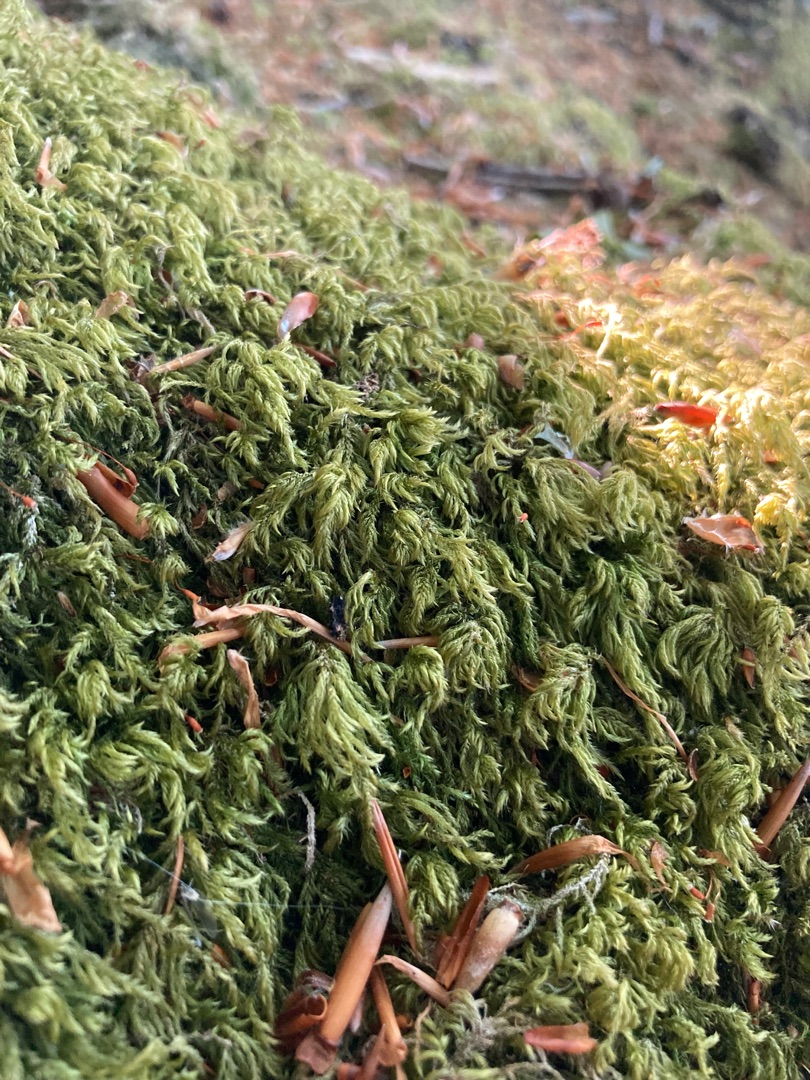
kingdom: Plantae
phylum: Bryophyta
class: Bryopsida
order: Hypnales
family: Lembophyllaceae
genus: Pseudisothecium
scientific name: Pseudisothecium myosuroides
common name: Slank stammemos
